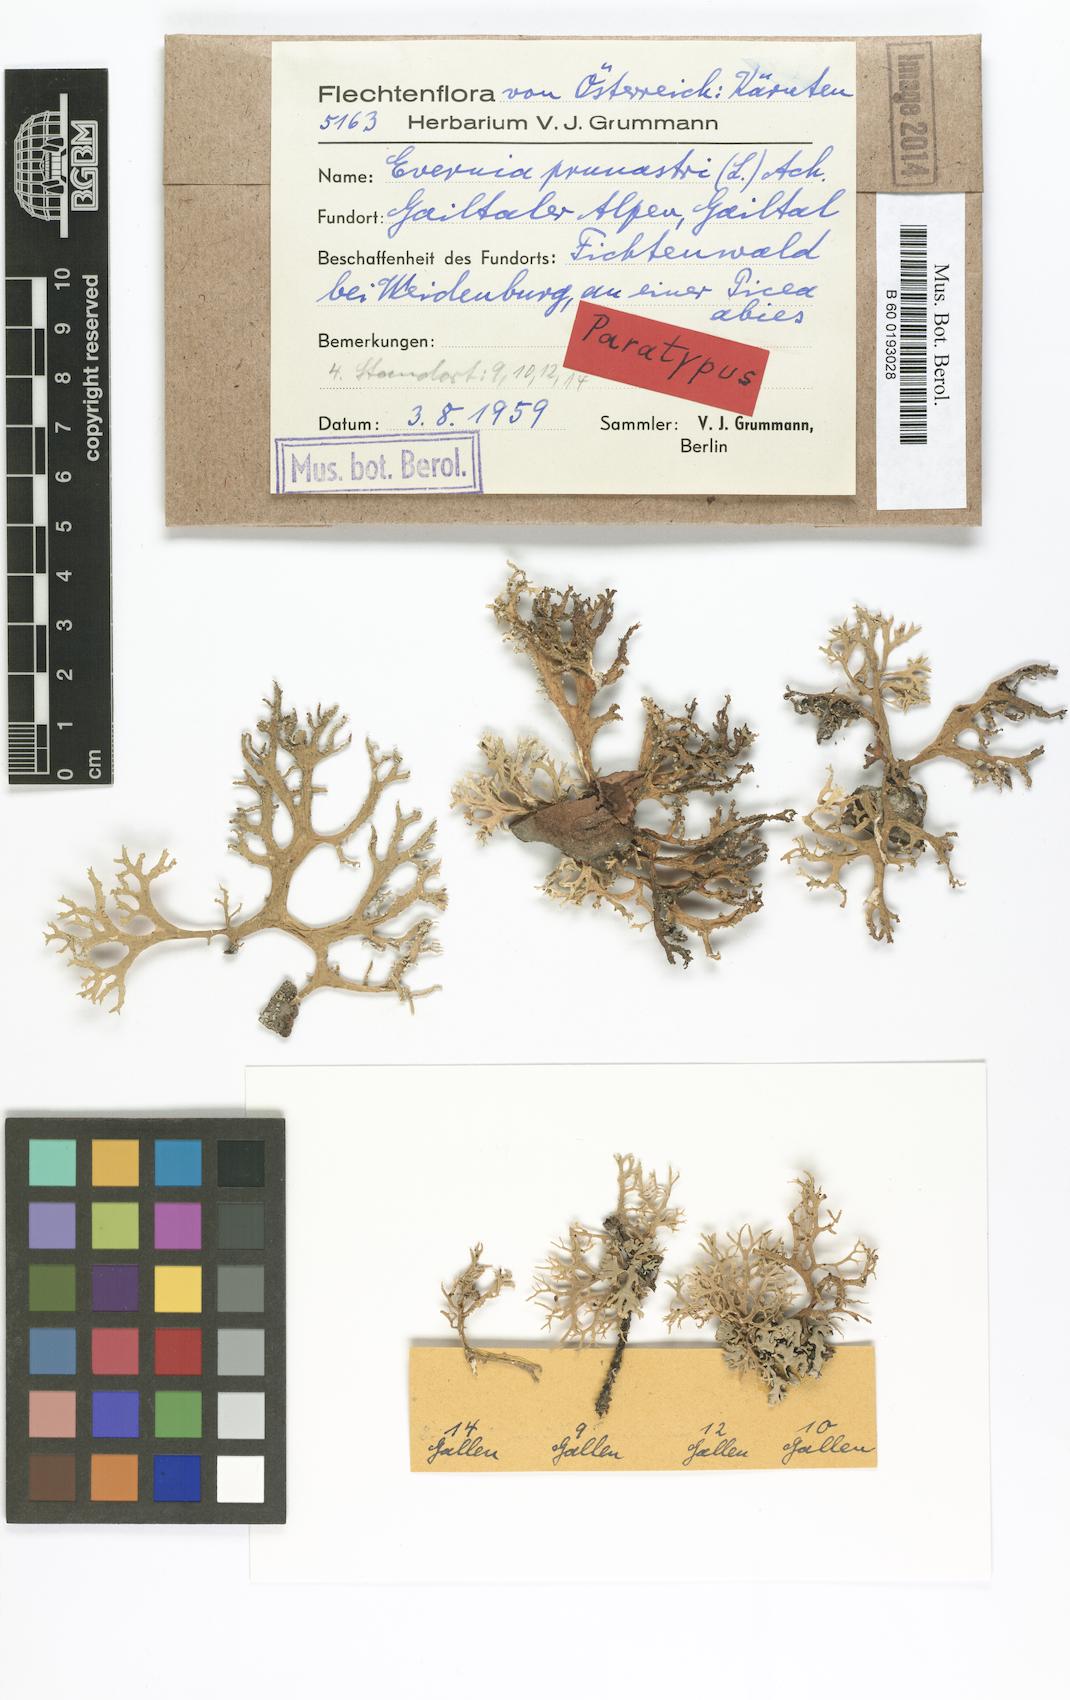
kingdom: Fungi
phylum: Ascomycota
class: Lecanoromycetes
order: Lecanorales
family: Parmeliaceae
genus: Evernia
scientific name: Evernia prunastri
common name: Oak moss
